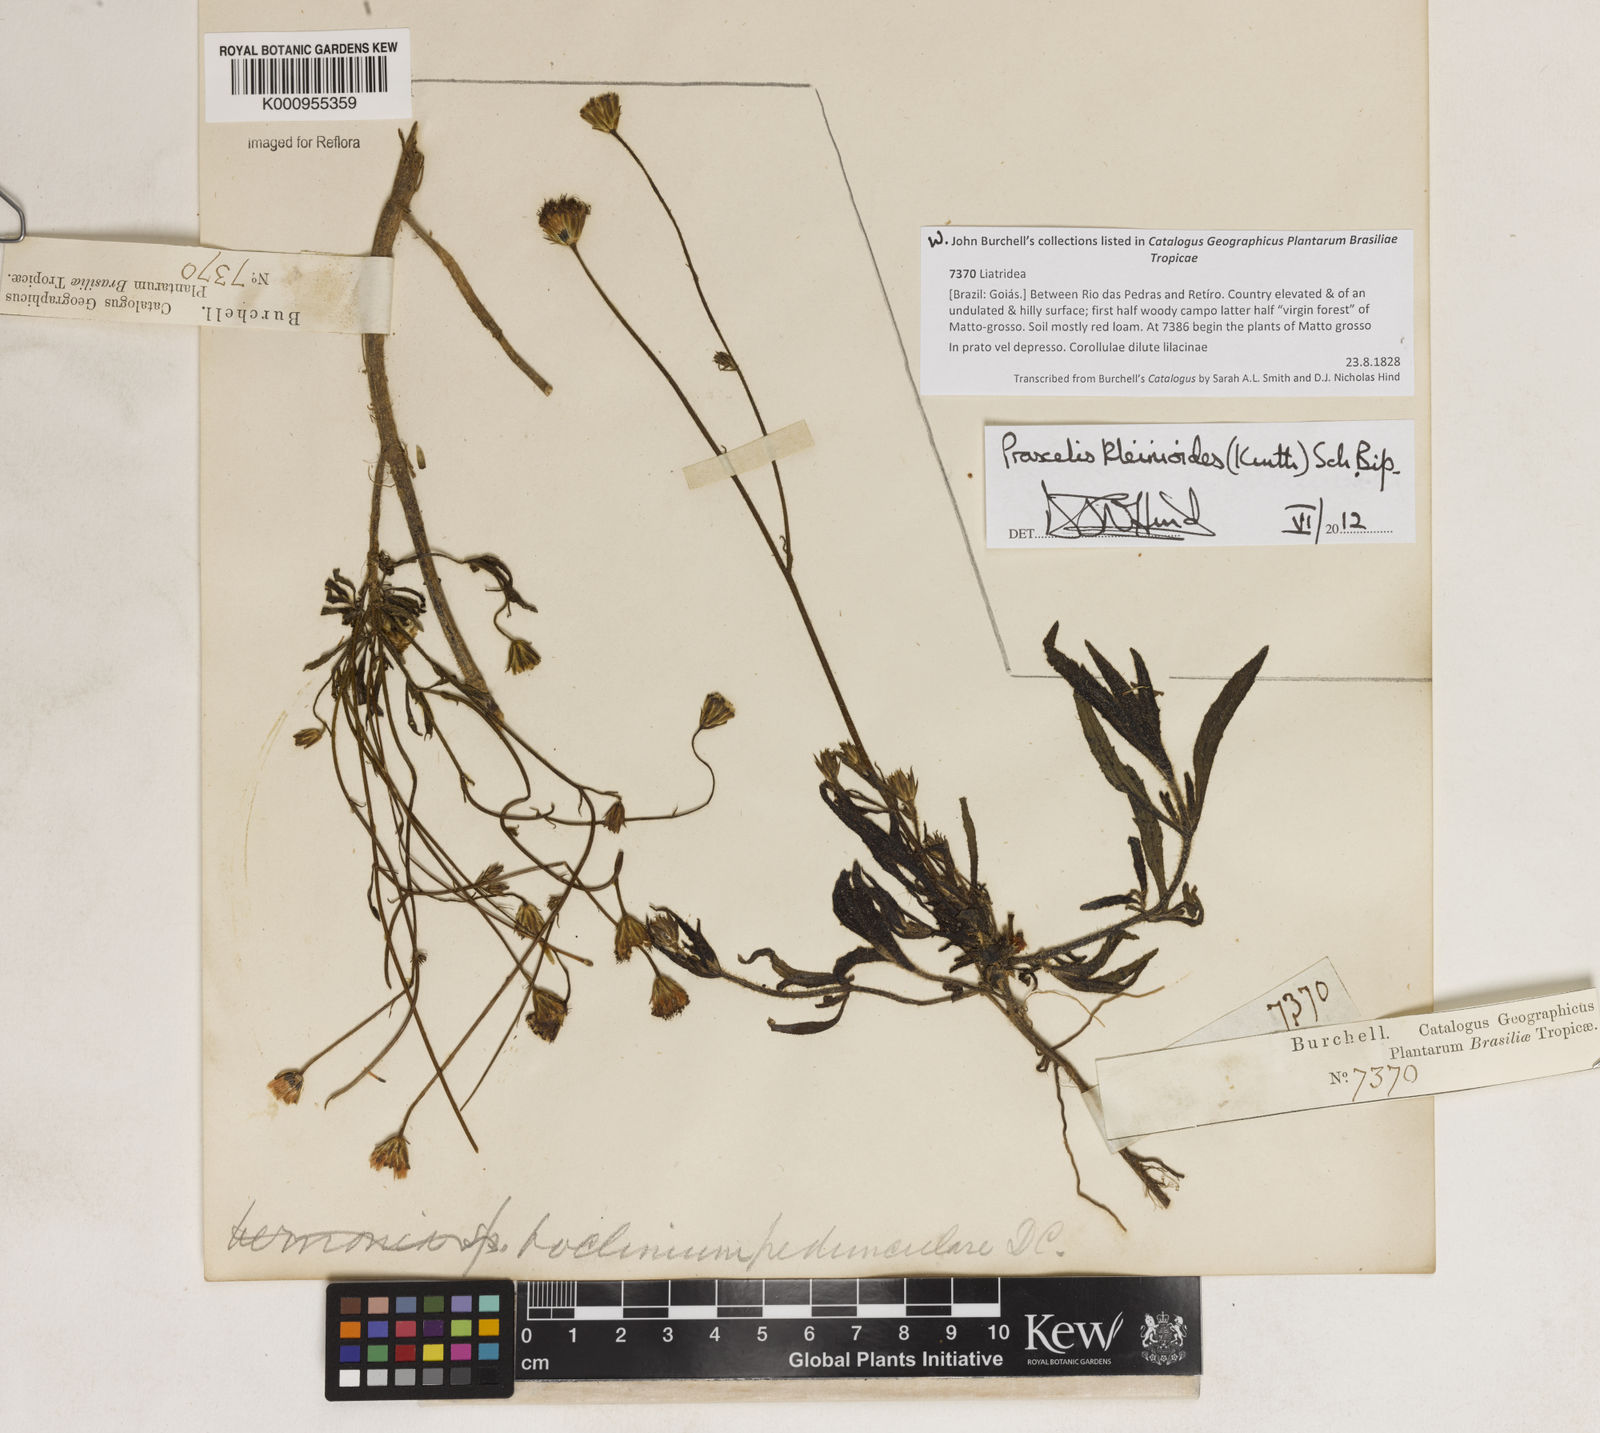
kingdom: Plantae
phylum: Tracheophyta
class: Magnoliopsida
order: Asterales
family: Asteraceae
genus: Praxelis
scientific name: Praxelis kleinioides
